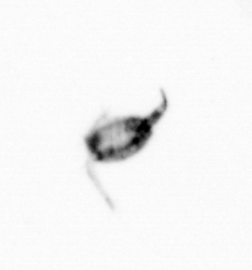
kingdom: Animalia
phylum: Arthropoda
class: Copepoda
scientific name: Copepoda
